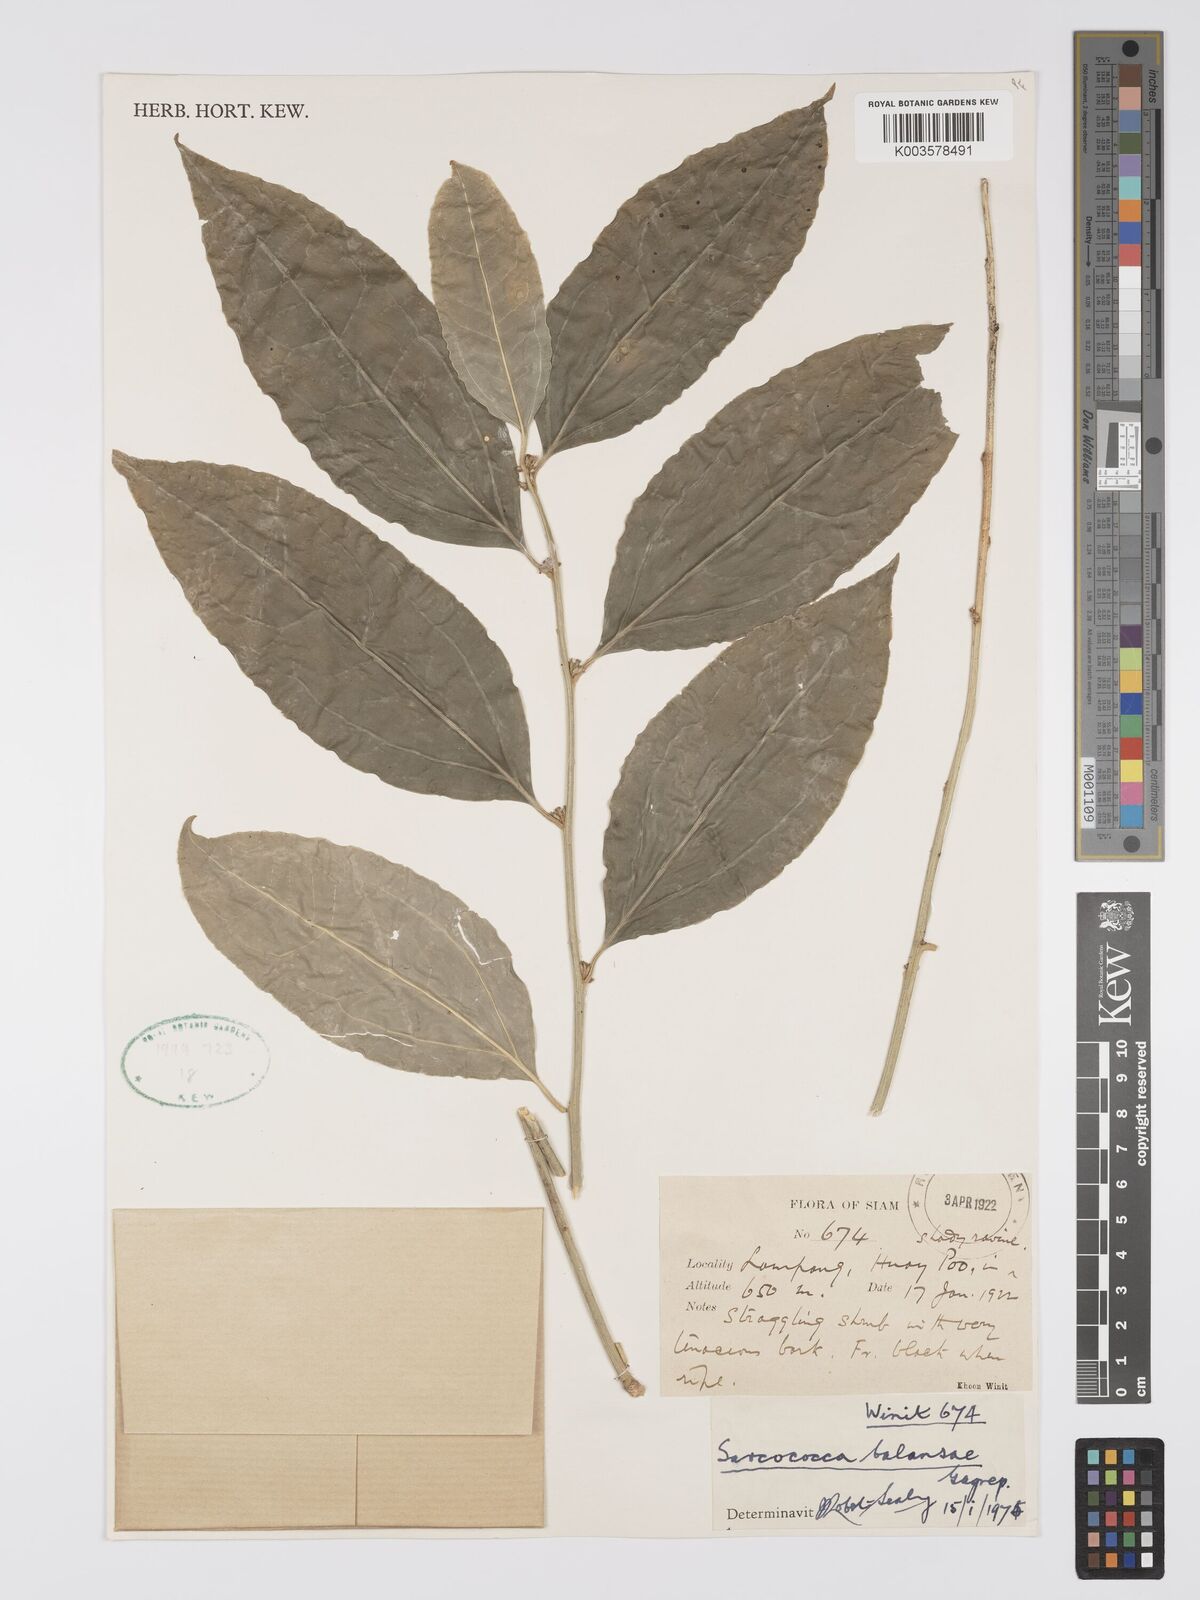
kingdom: Plantae
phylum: Tracheophyta
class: Magnoliopsida
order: Buxales
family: Buxaceae
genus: Sarcococca
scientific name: Sarcococca balansae
